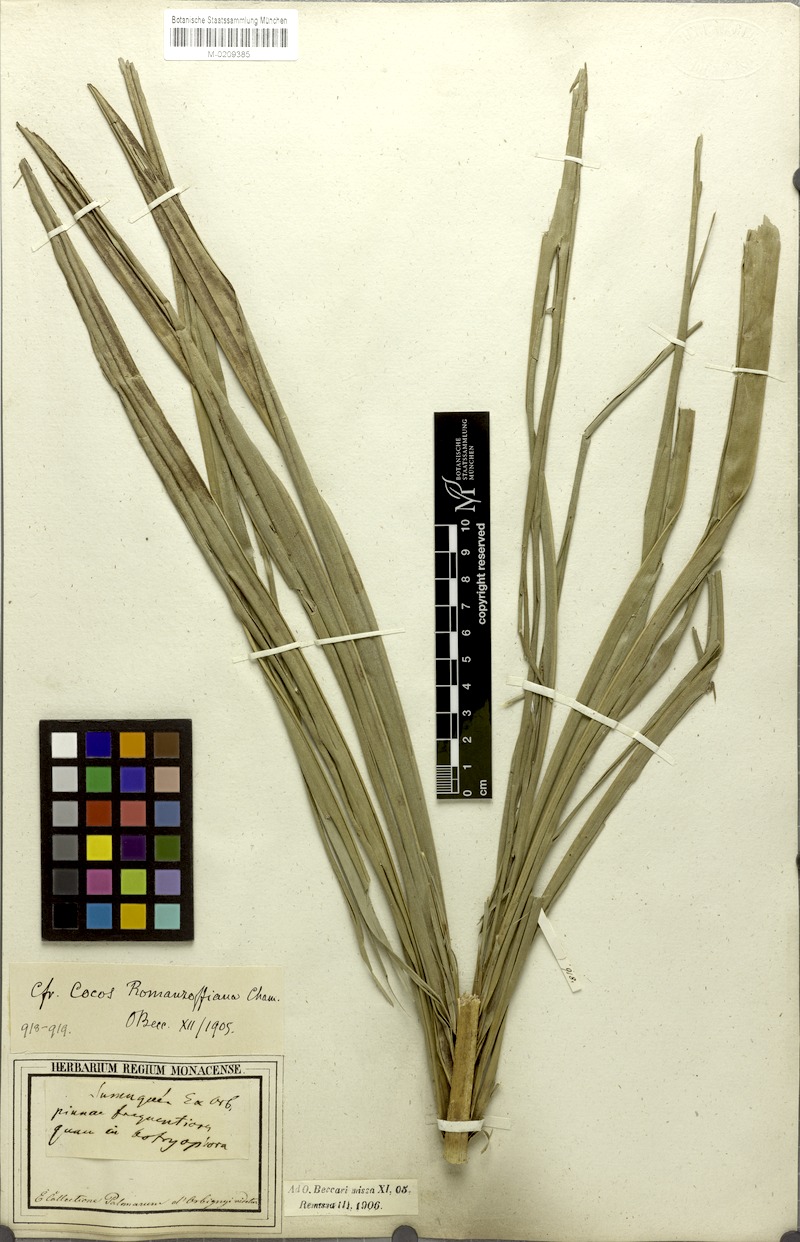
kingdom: Plantae
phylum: Tracheophyta
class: Liliopsida
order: Arecales
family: Arecaceae
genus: Syagrus
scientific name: Syagrus romanzoffiana
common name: Queen palm
